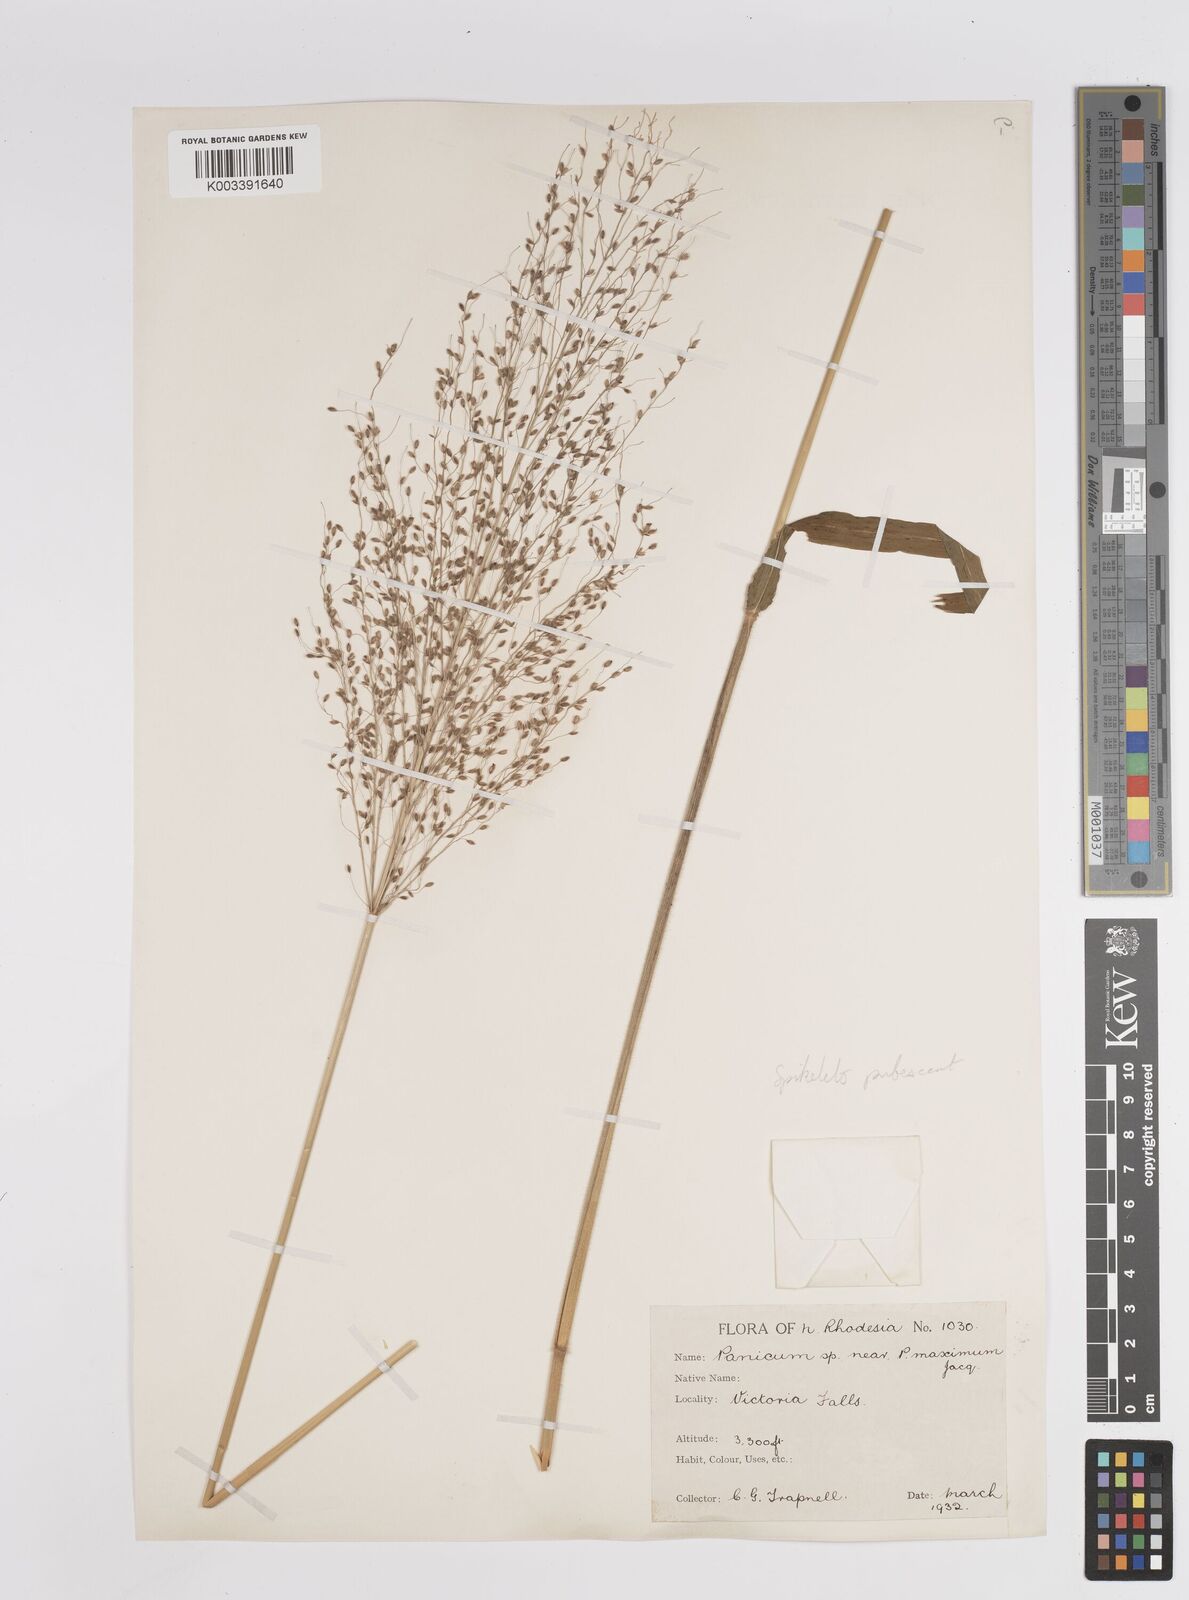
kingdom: Plantae
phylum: Tracheophyta
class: Liliopsida
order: Poales
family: Poaceae
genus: Megathyrsus
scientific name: Megathyrsus maximus
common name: Guineagrass
